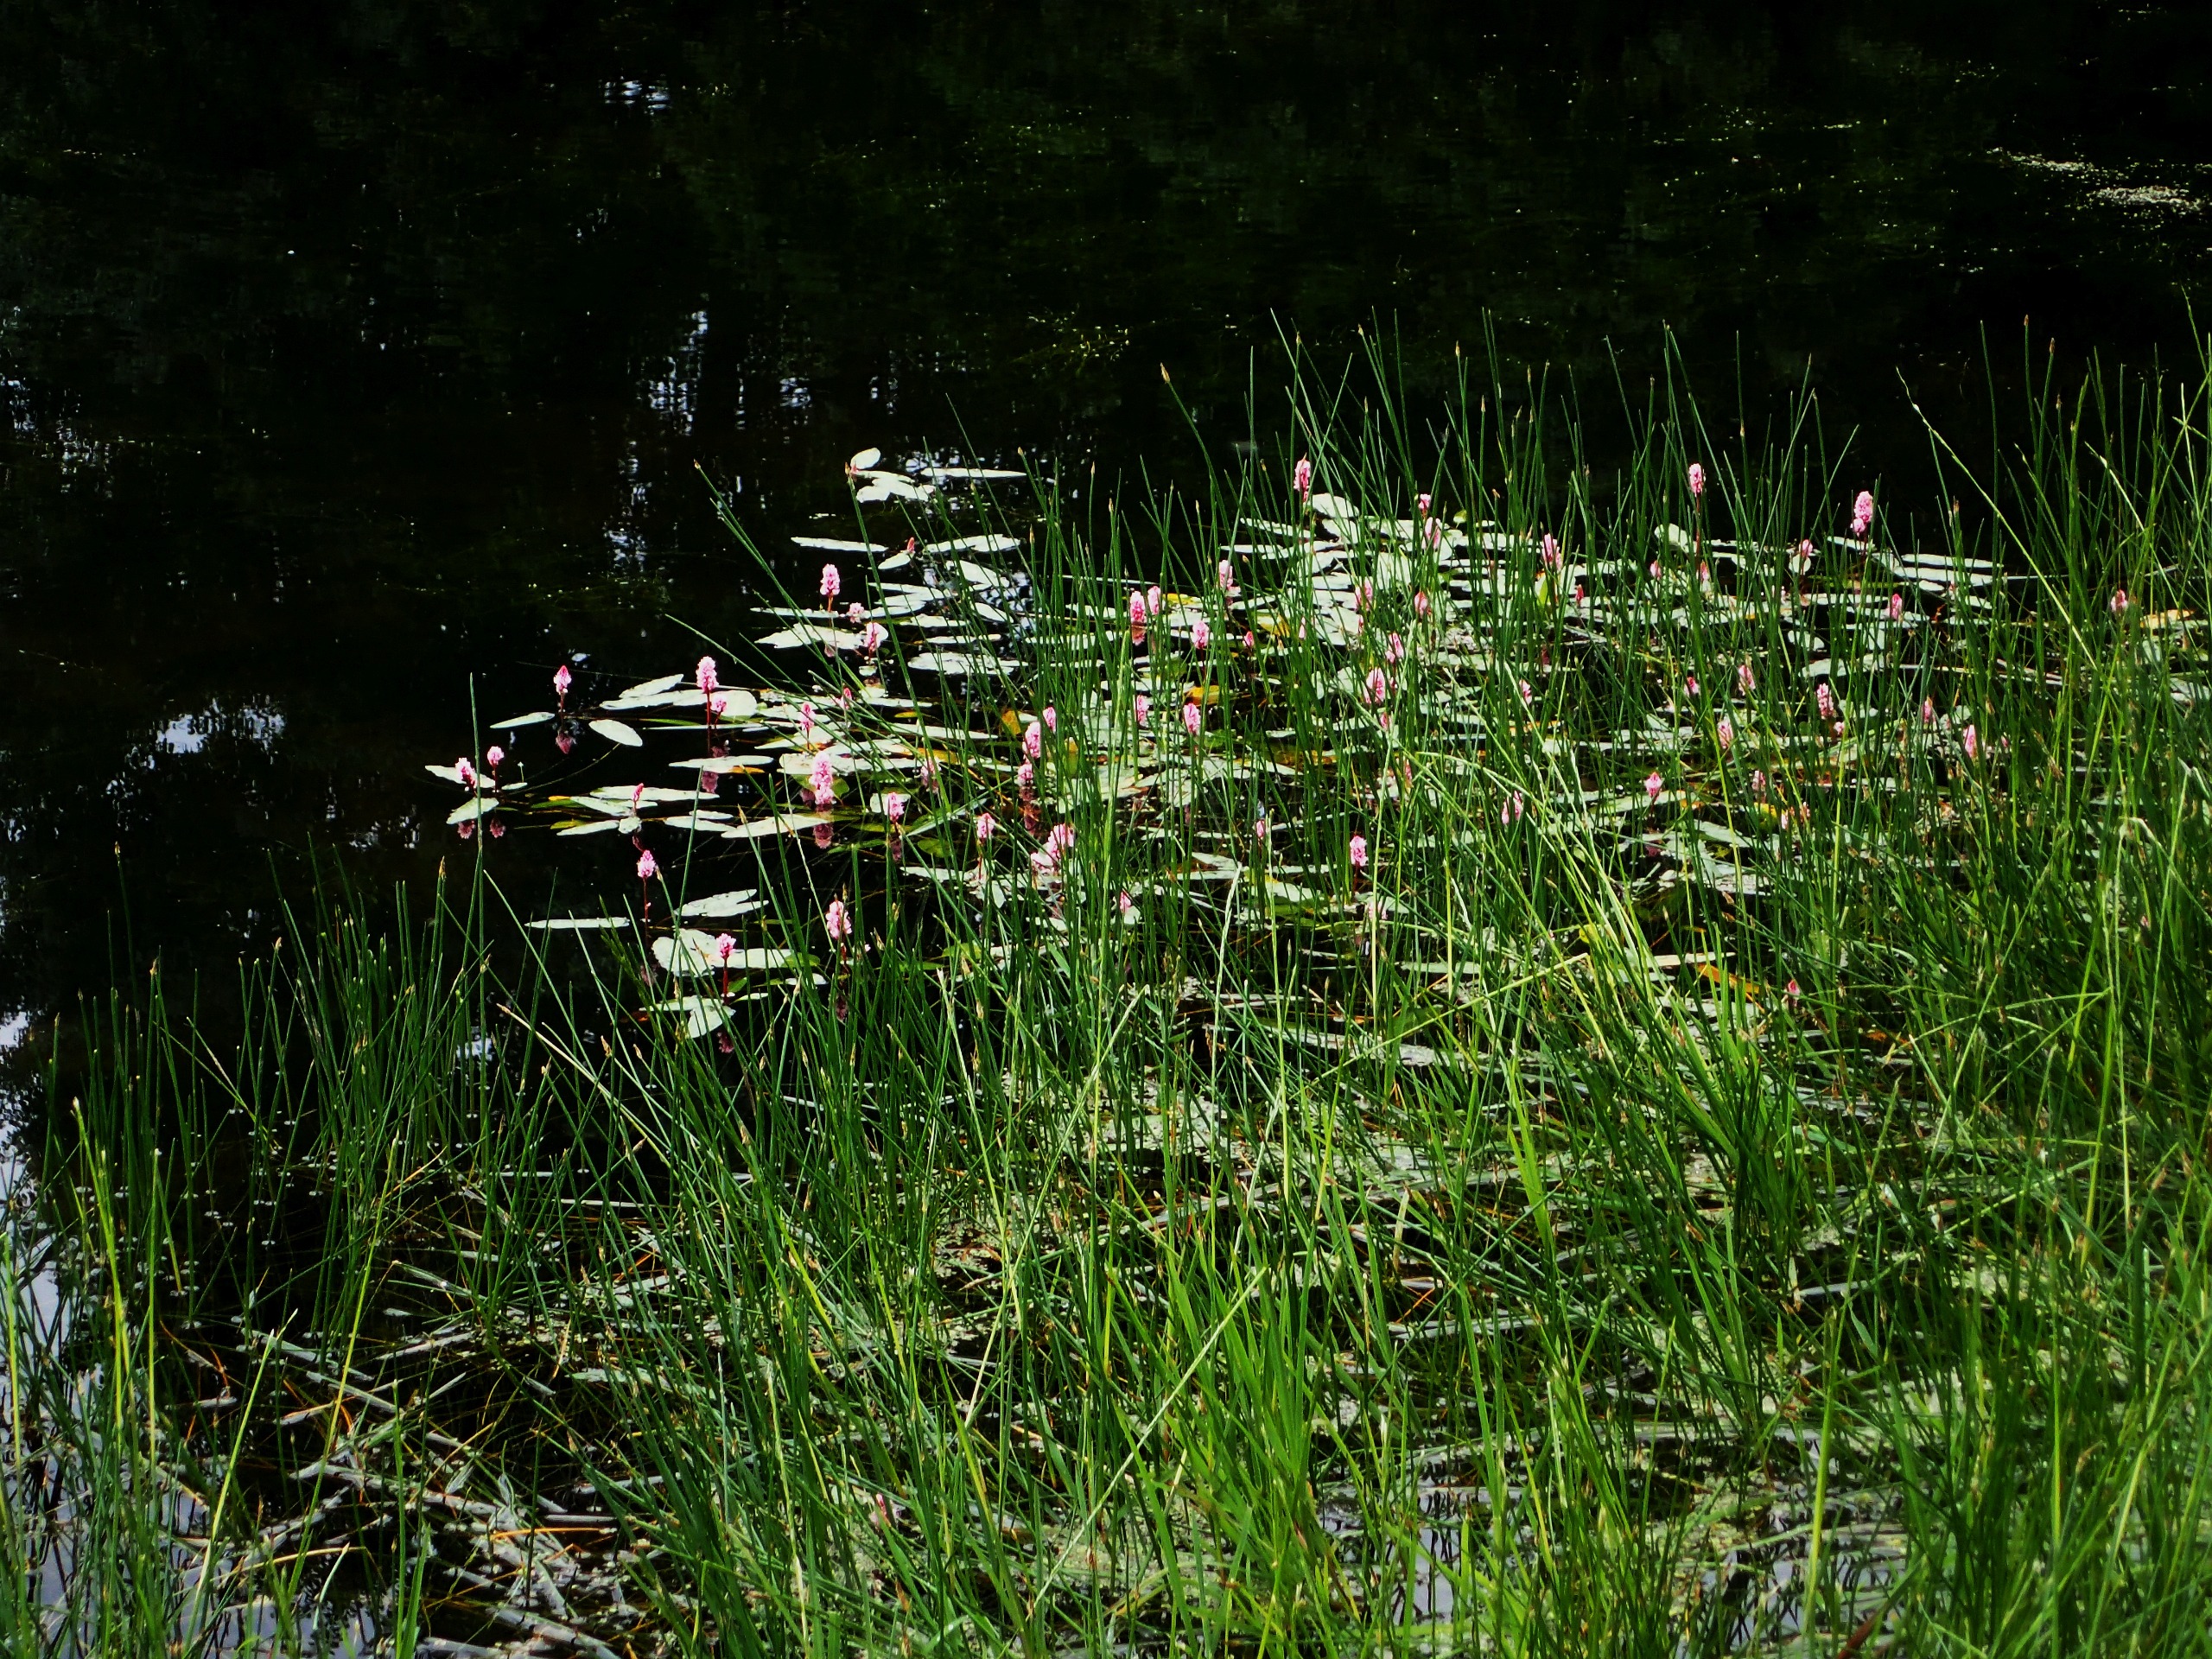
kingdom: Plantae
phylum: Tracheophyta
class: Magnoliopsida
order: Caryophyllales
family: Polygonaceae
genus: Persicaria
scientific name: Persicaria amphibia
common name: Vand-pileurt
